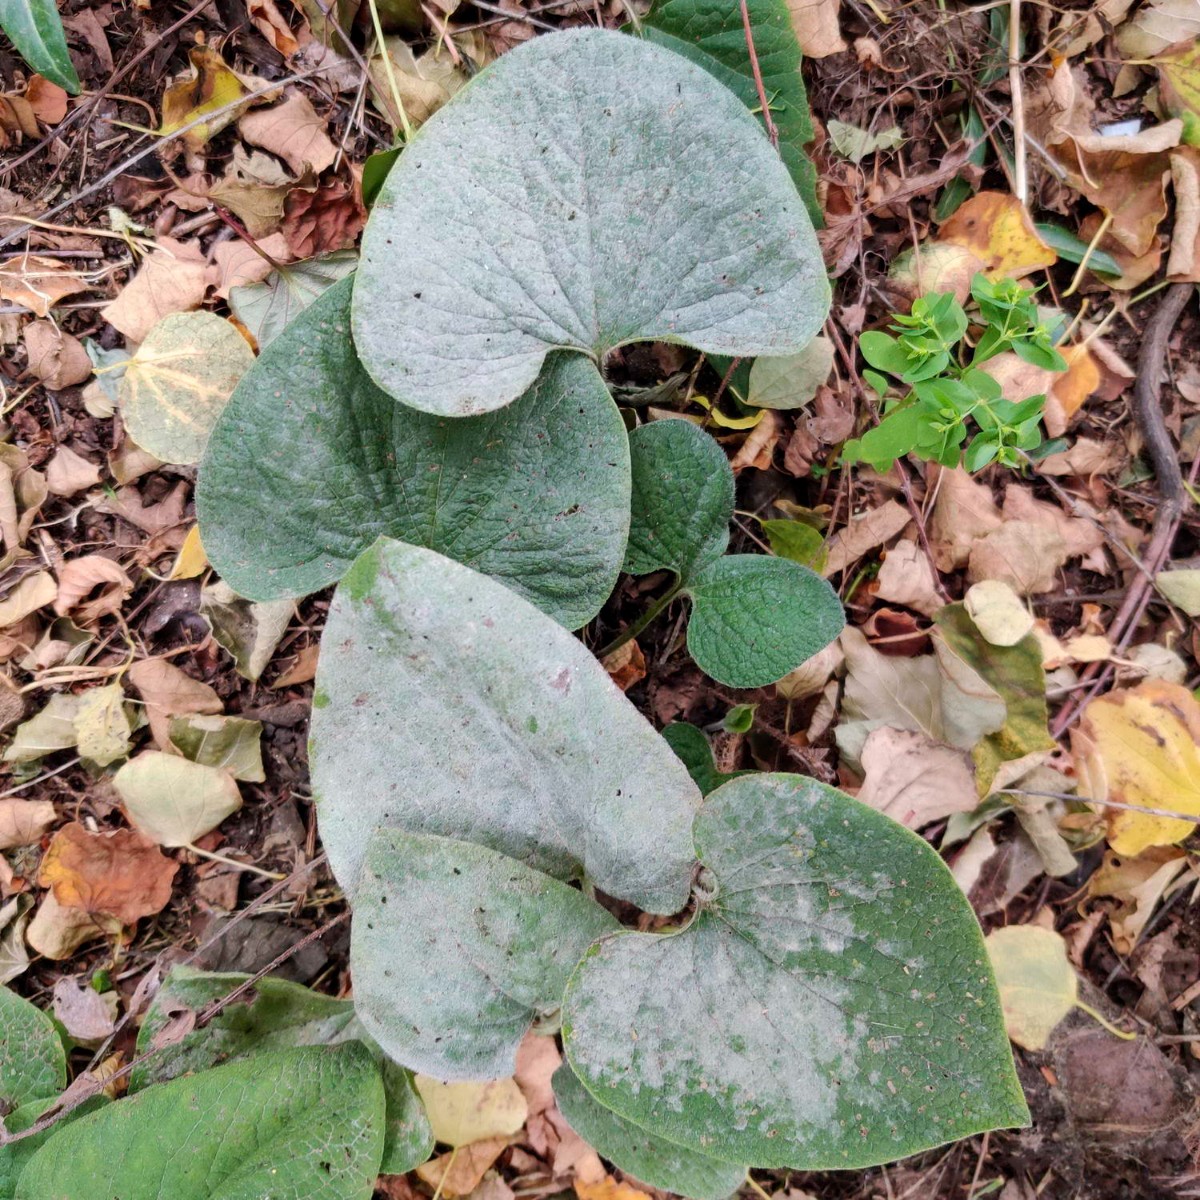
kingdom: Fungi
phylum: Ascomycota
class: Leotiomycetes
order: Helotiales
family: Erysiphaceae
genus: Golovinomyces
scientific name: Golovinomyces
